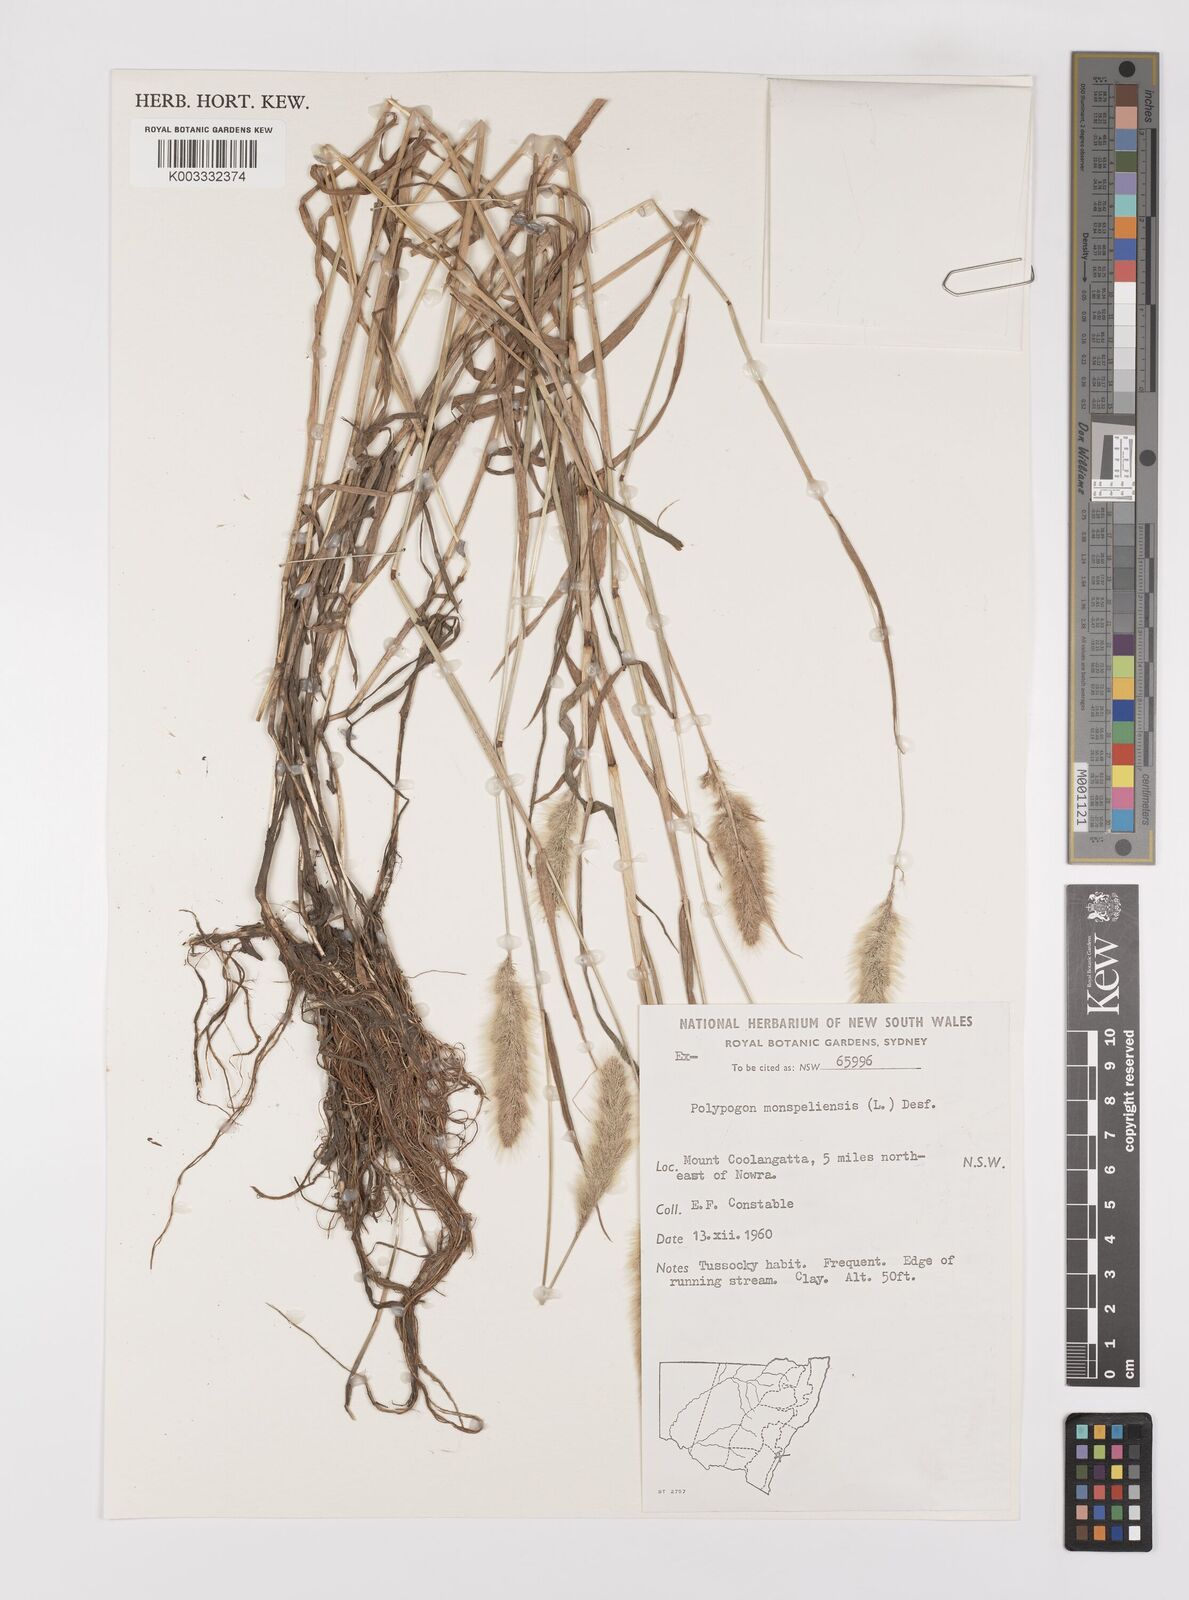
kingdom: Plantae
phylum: Tracheophyta
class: Liliopsida
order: Poales
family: Poaceae
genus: Polypogon
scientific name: Polypogon monspeliensis
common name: Annual rabbitsfoot grass
